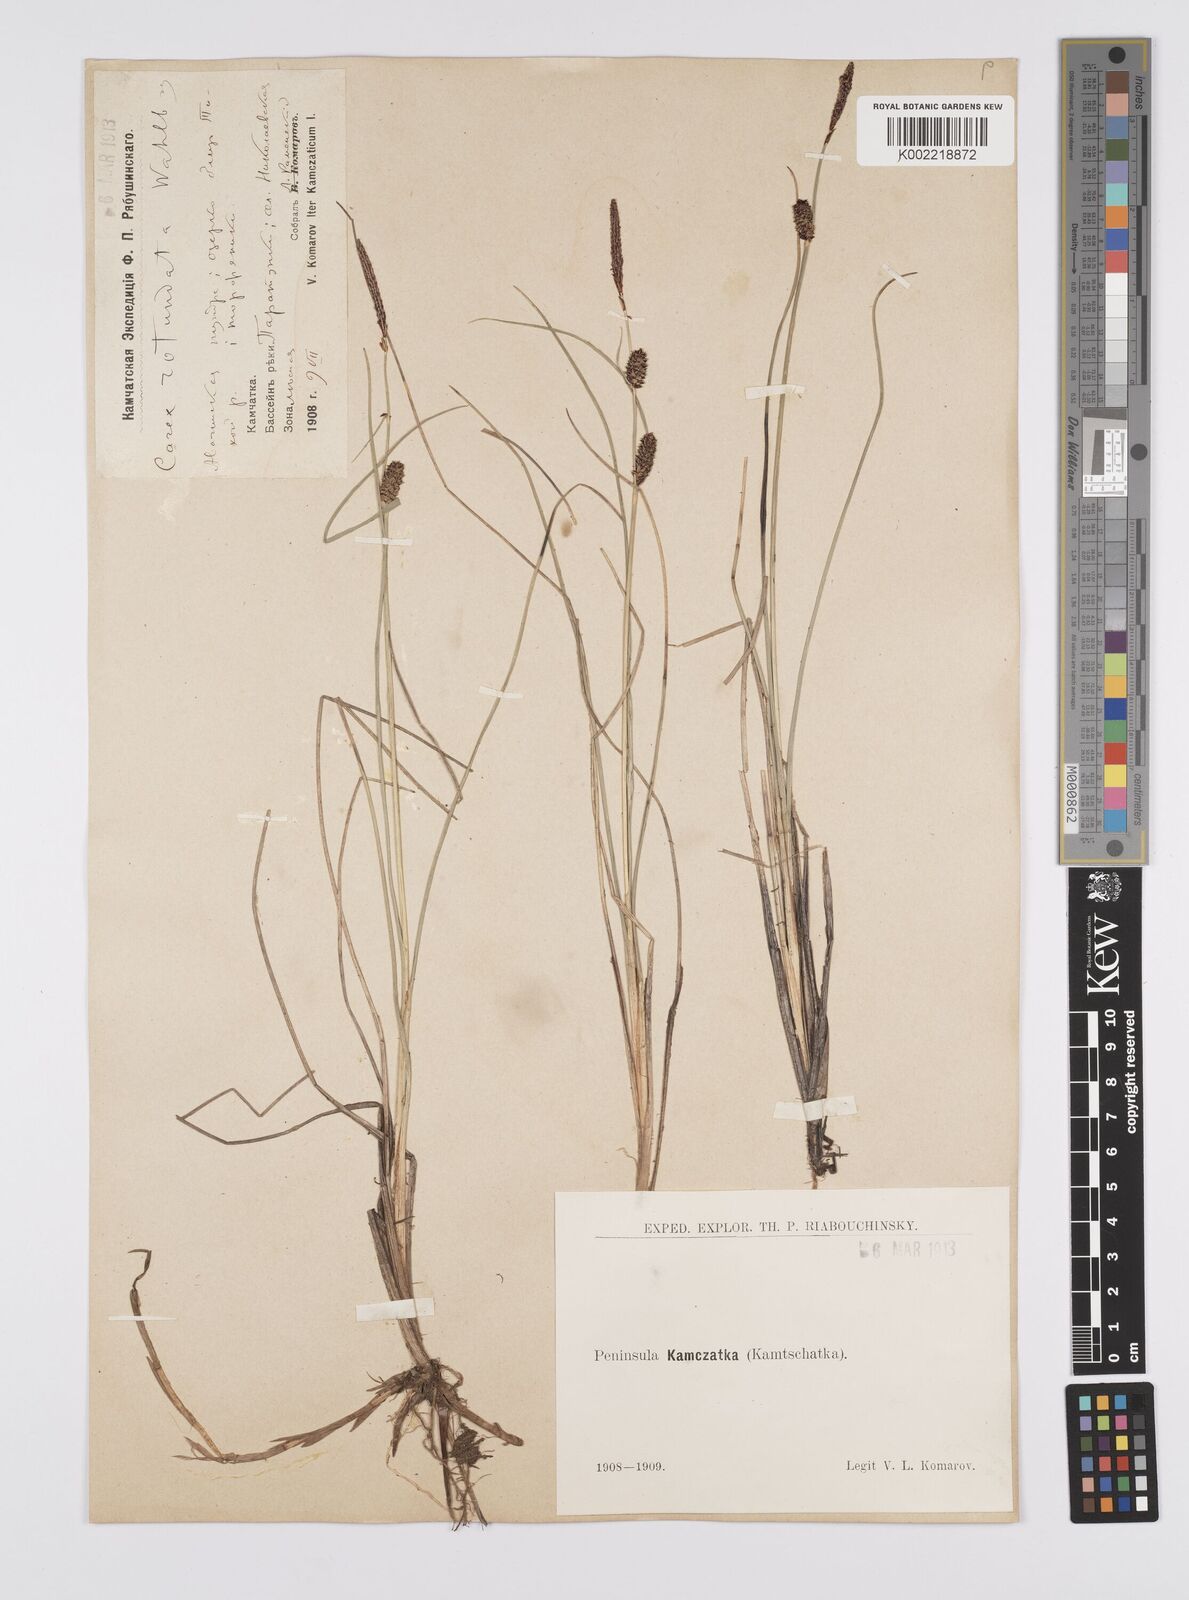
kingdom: Plantae
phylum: Tracheophyta
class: Liliopsida
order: Poales
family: Cyperaceae
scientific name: Cyperaceae
